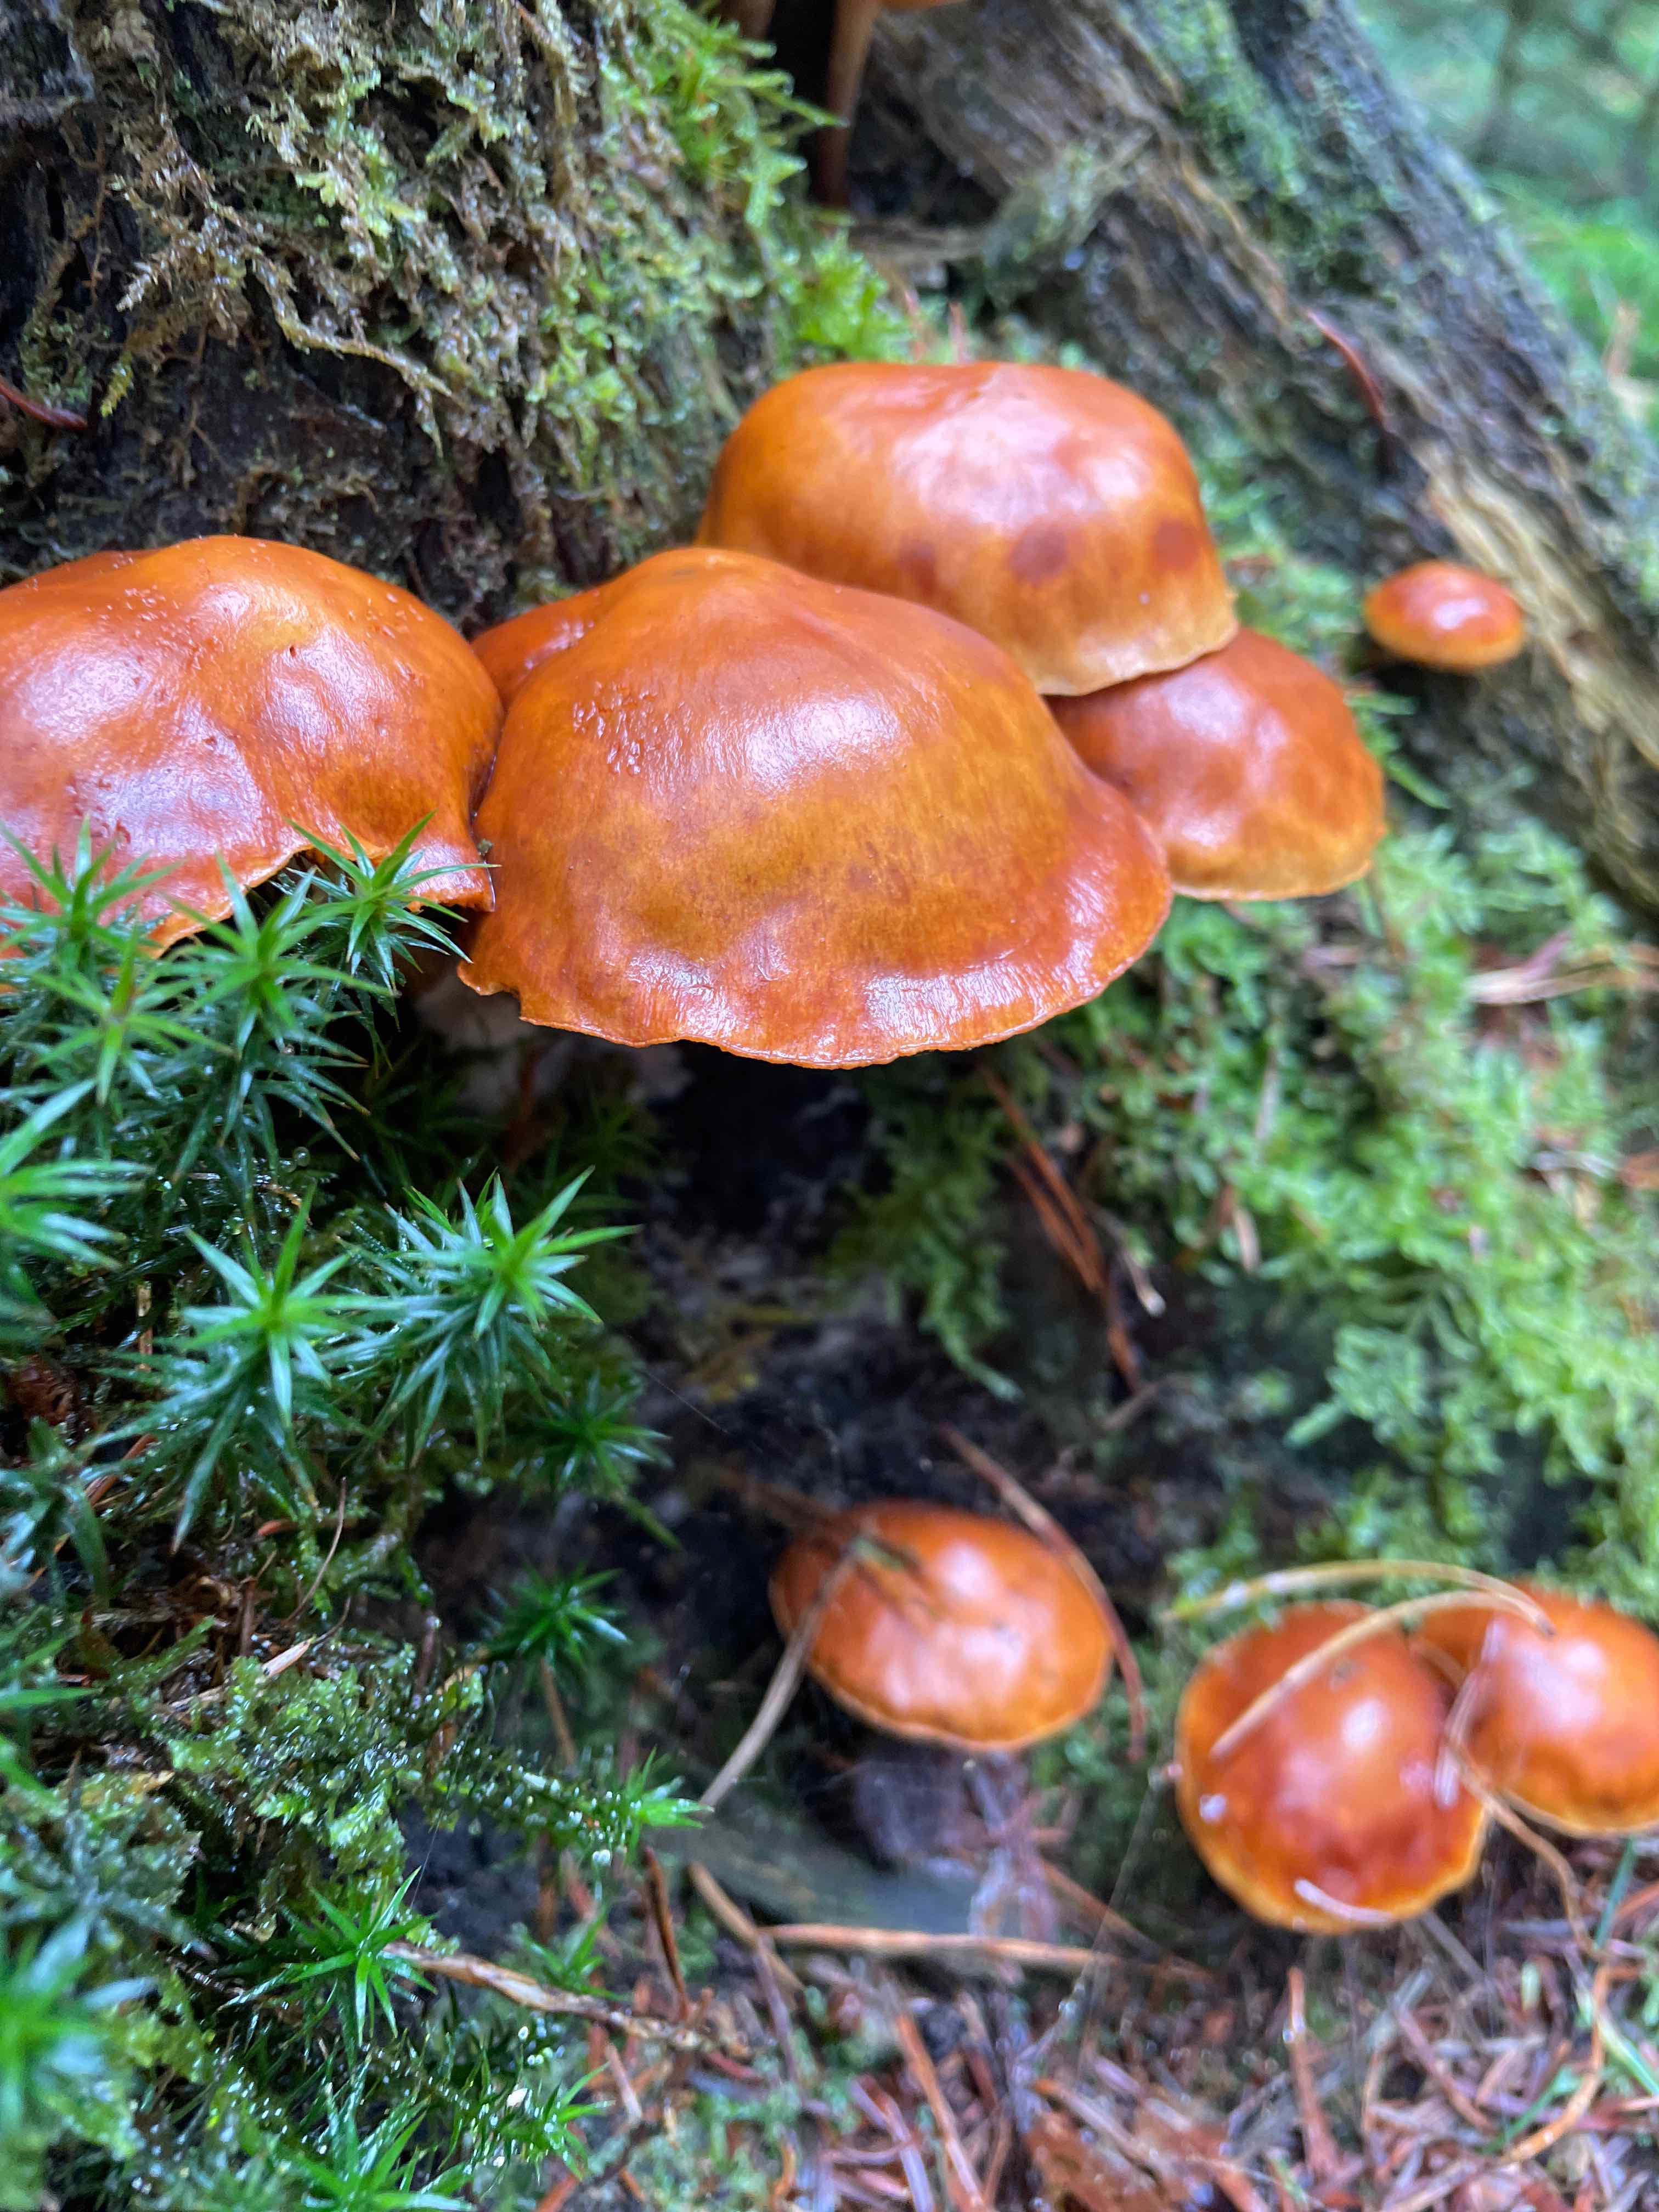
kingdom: Fungi
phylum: Basidiomycota
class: Agaricomycetes
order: Agaricales
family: Hymenogastraceae
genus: Gymnopilus
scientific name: Gymnopilus penetrans
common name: plettet flammehat
